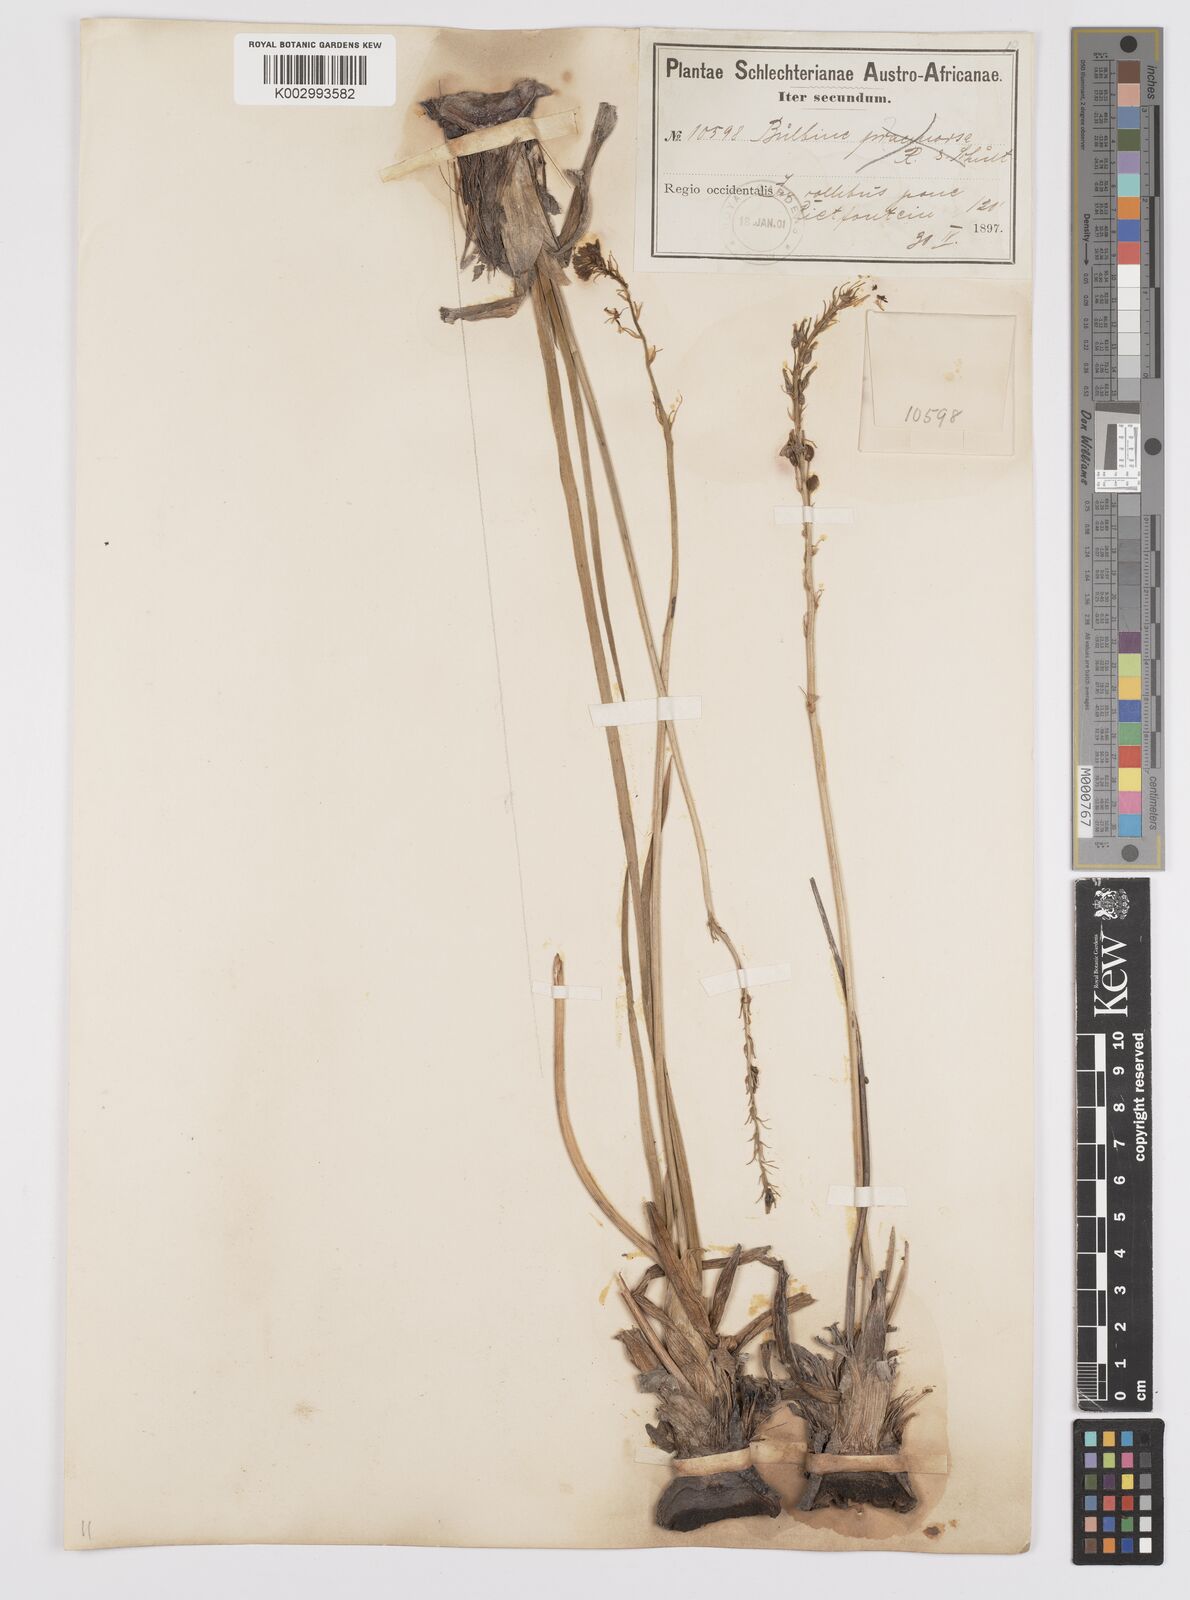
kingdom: Plantae
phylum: Tracheophyta
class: Liliopsida
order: Asparagales
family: Asphodelaceae
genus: Bulbine
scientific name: Bulbine cepacea
